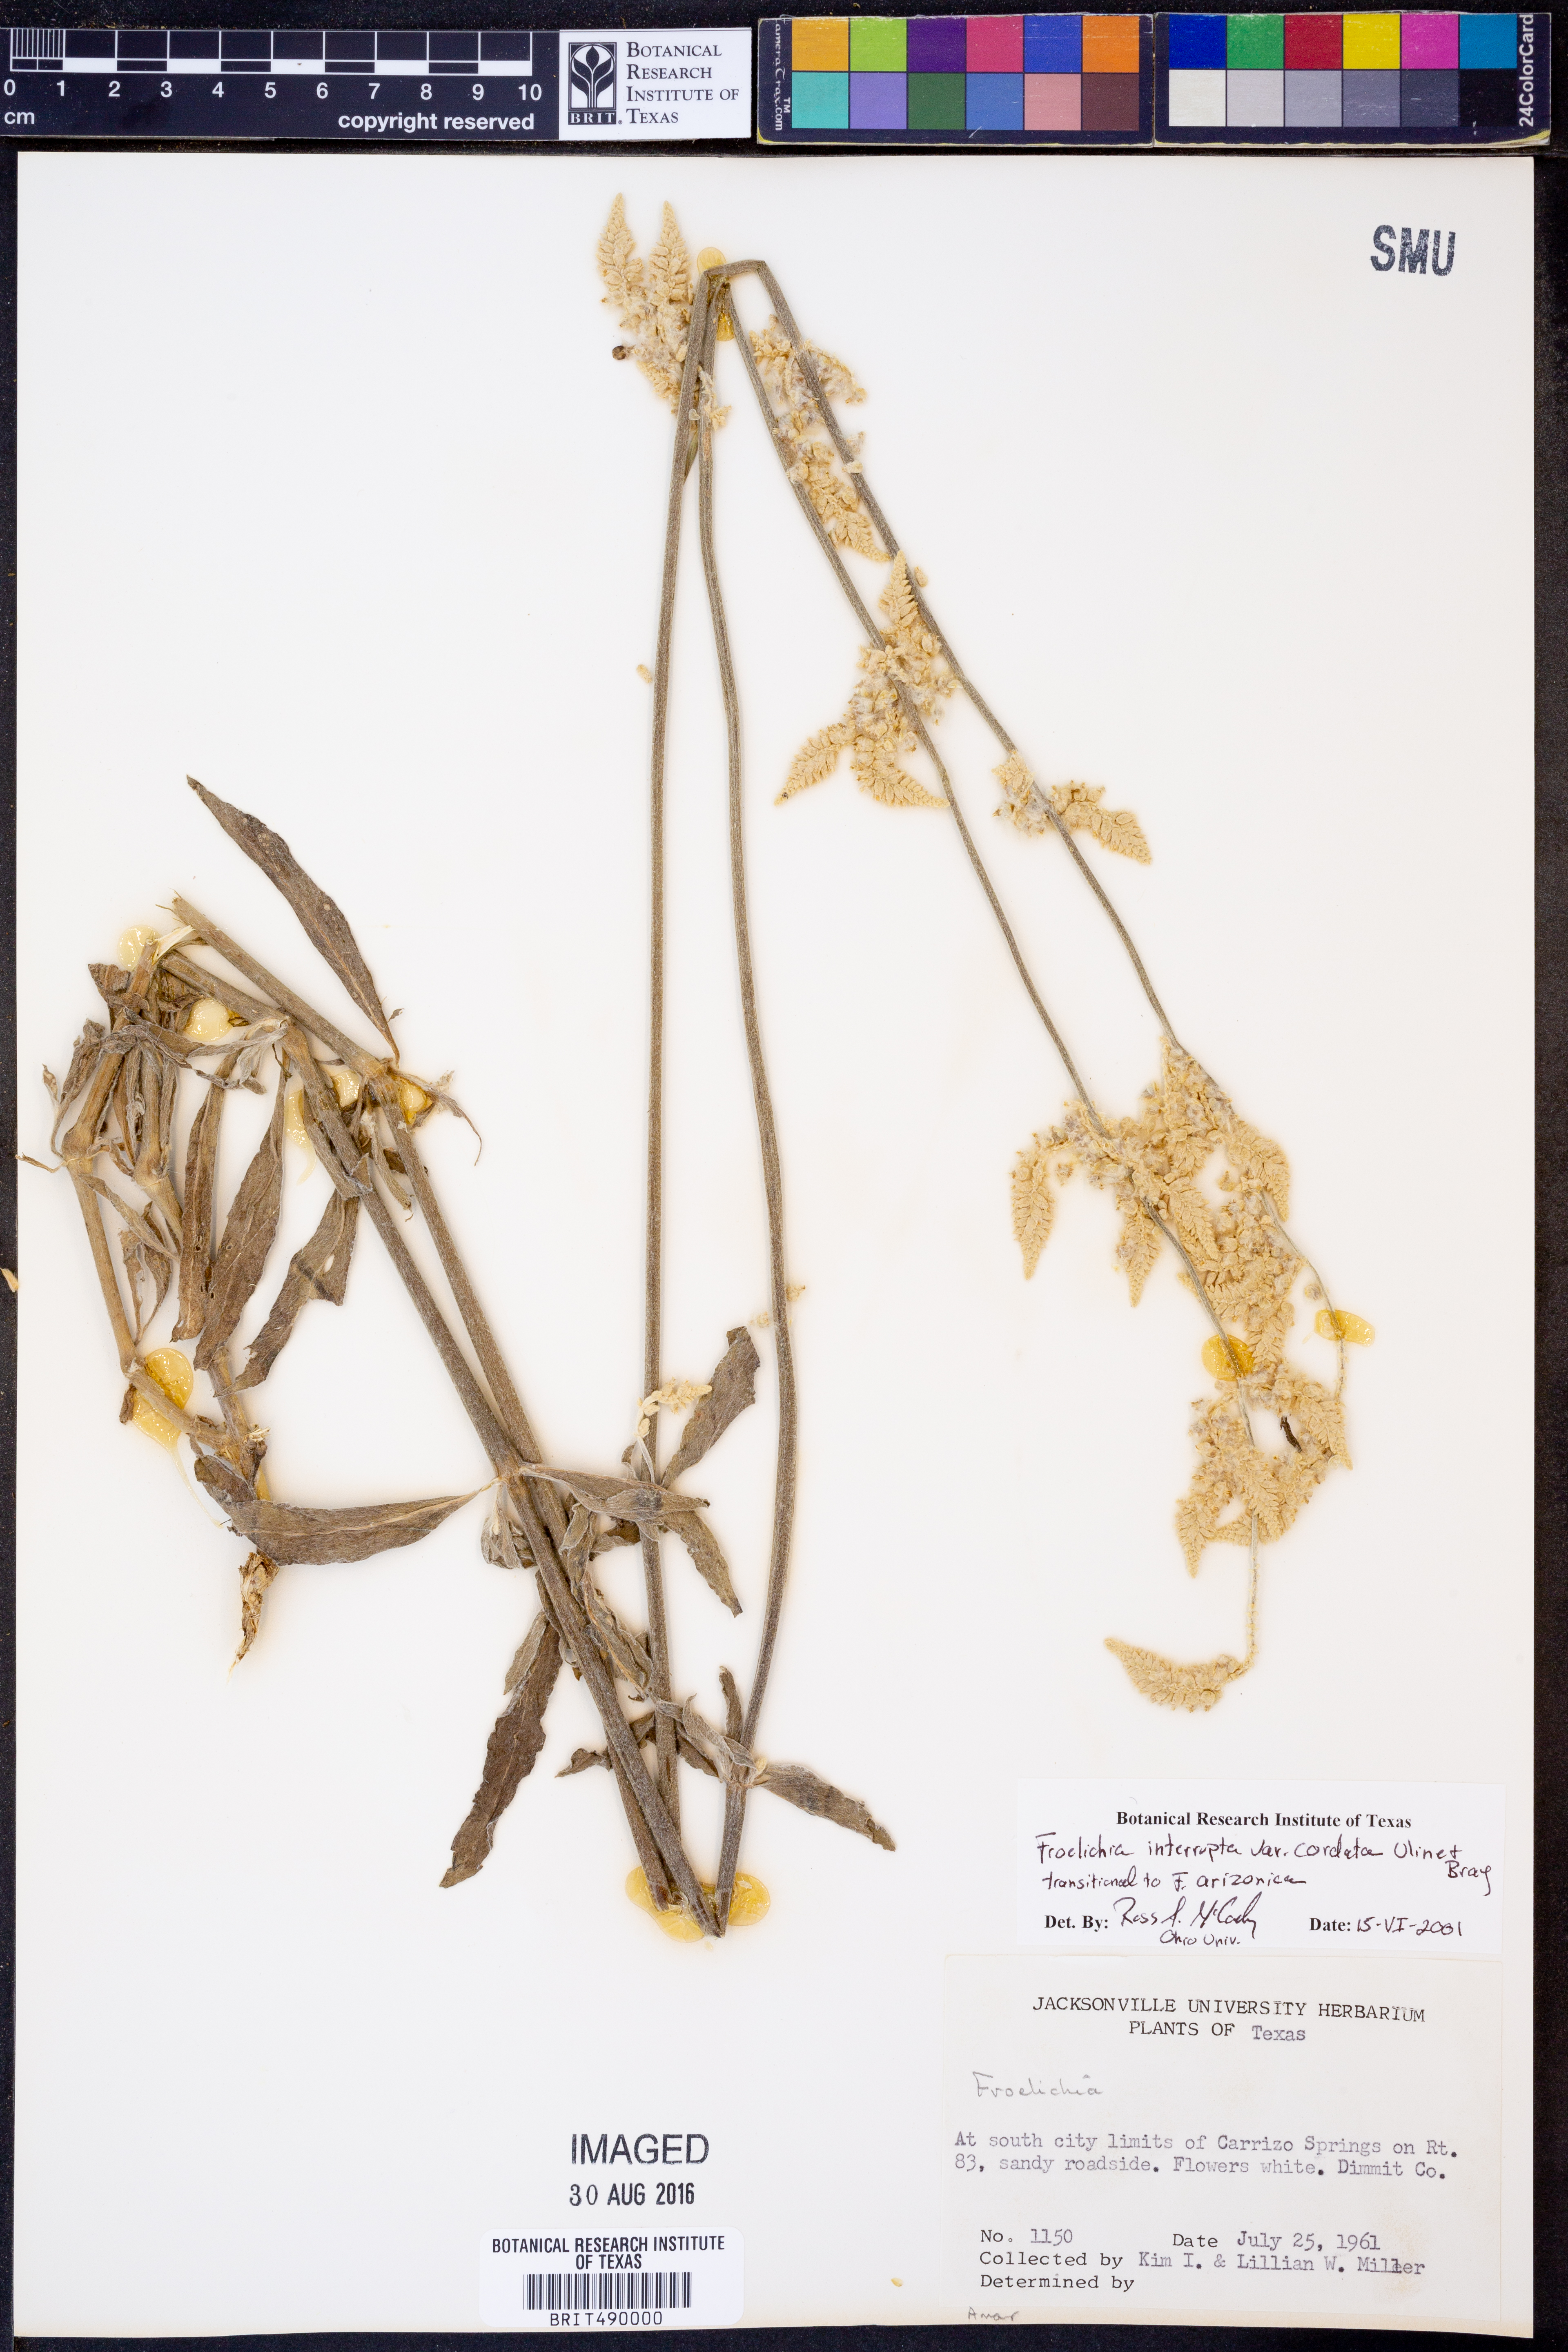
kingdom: Plantae
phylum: Tracheophyta
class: Magnoliopsida
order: Caryophyllales
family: Amaranthaceae
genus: Froelichia
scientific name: Froelichia texana
